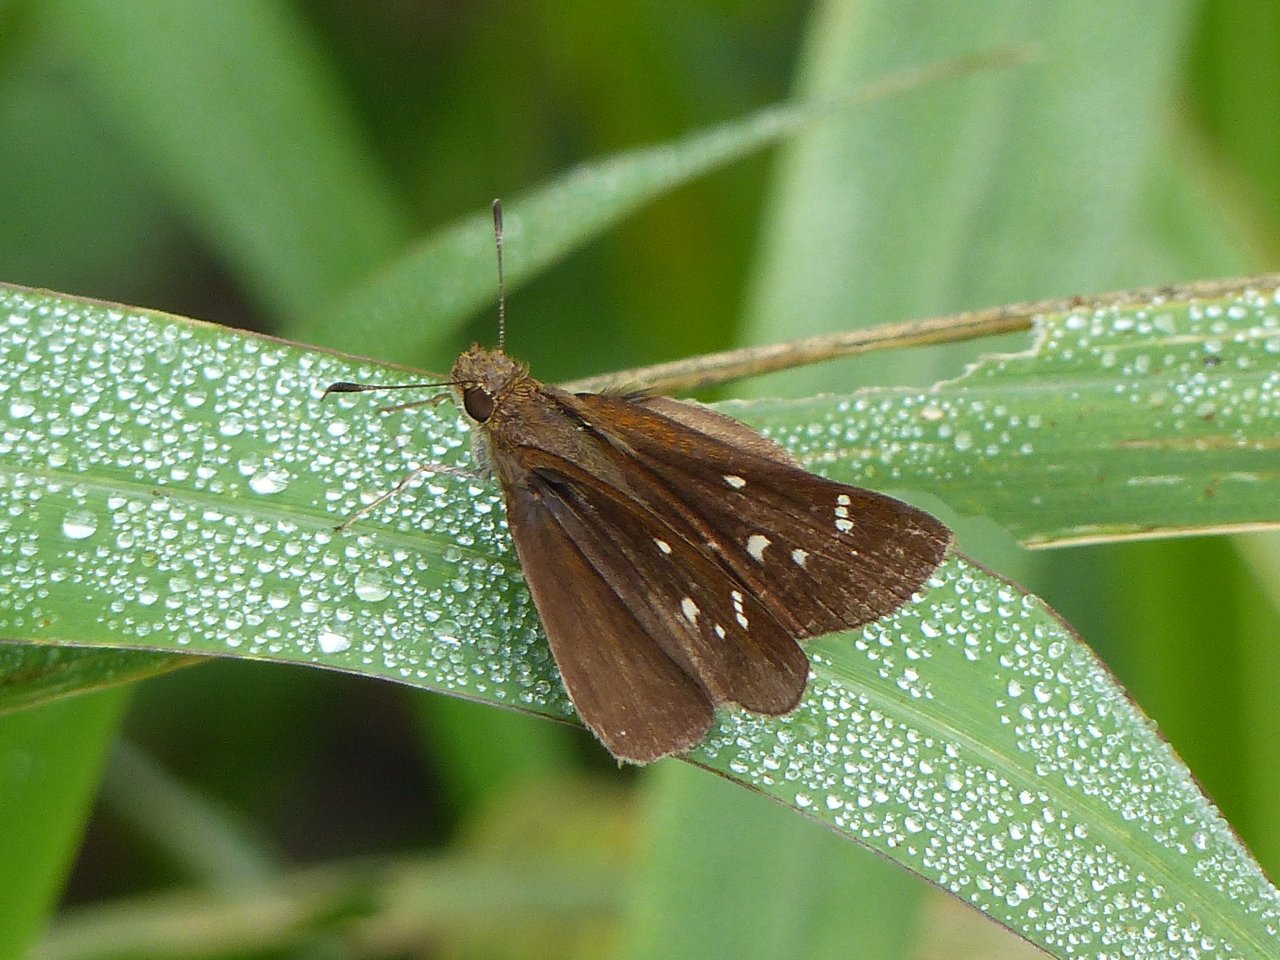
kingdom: Animalia
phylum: Arthropoda
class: Insecta
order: Lepidoptera
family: Hesperiidae
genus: Lerema
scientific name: Lerema accius
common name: Clouded Skipper
